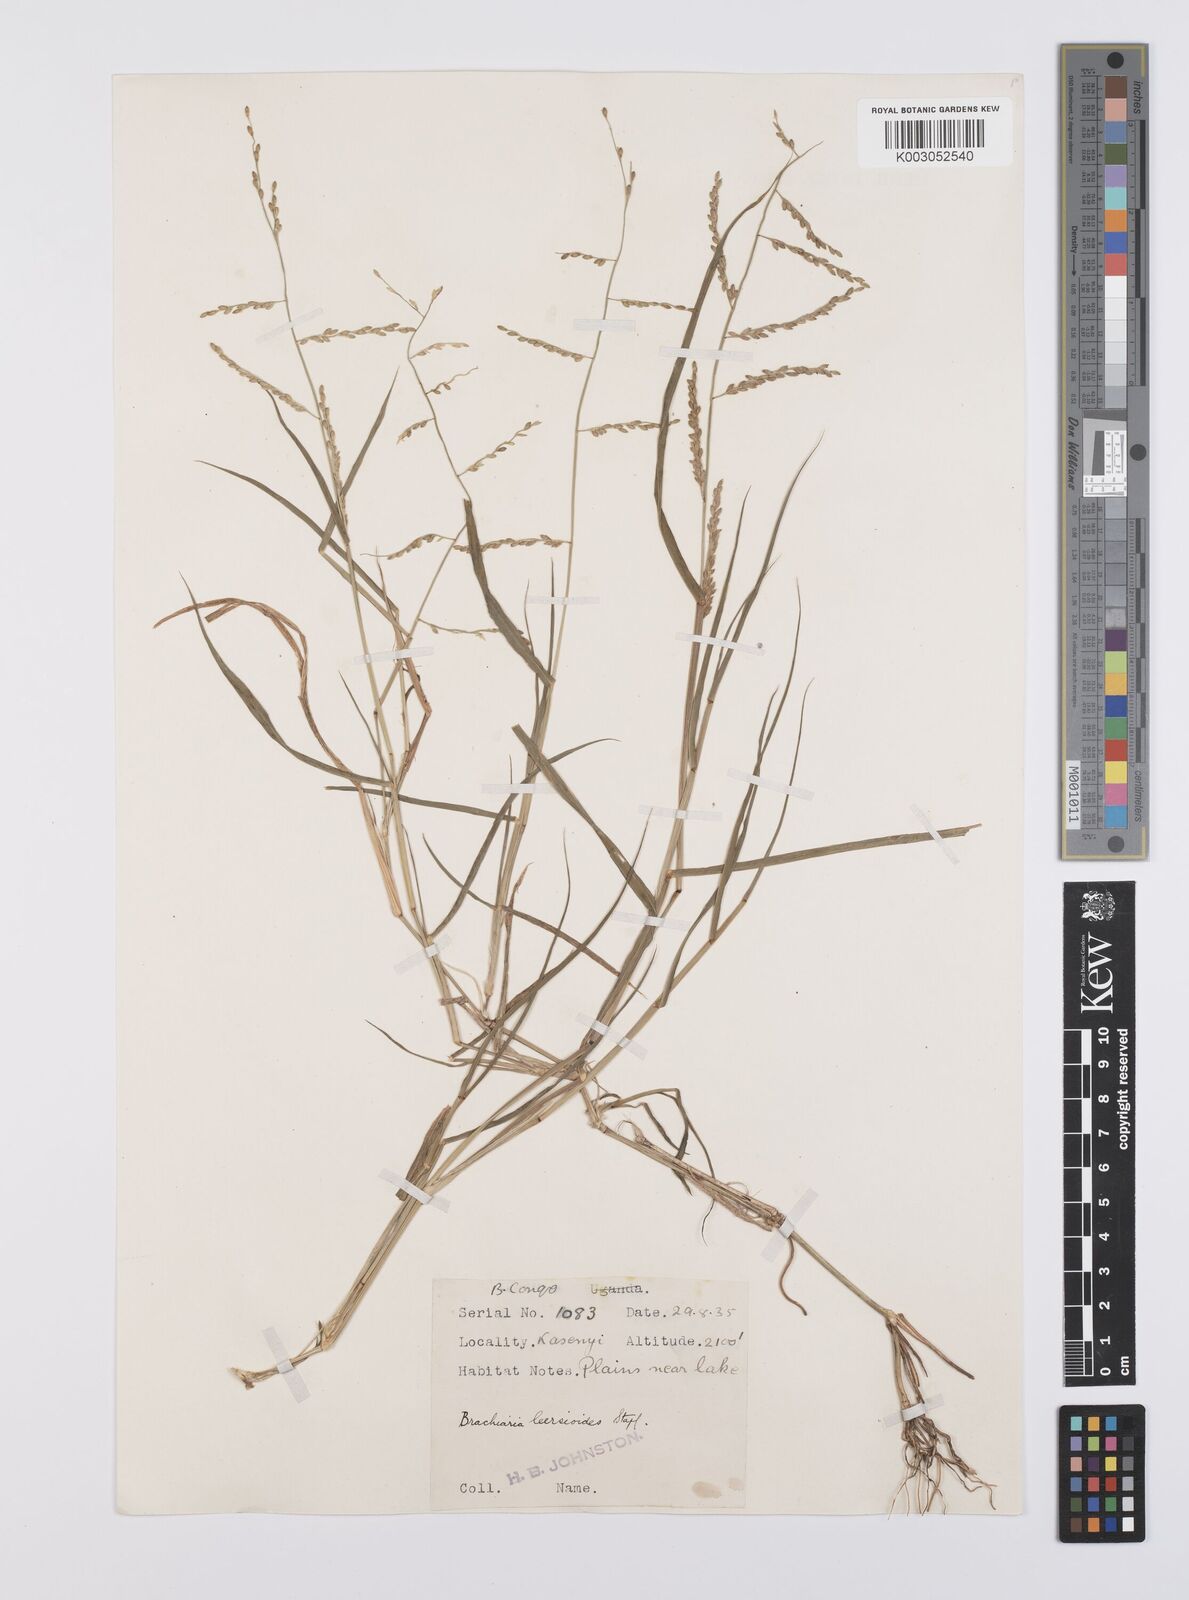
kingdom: Plantae
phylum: Tracheophyta
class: Liliopsida
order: Poales
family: Poaceae
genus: Urochloa
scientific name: Urochloa leersioides
